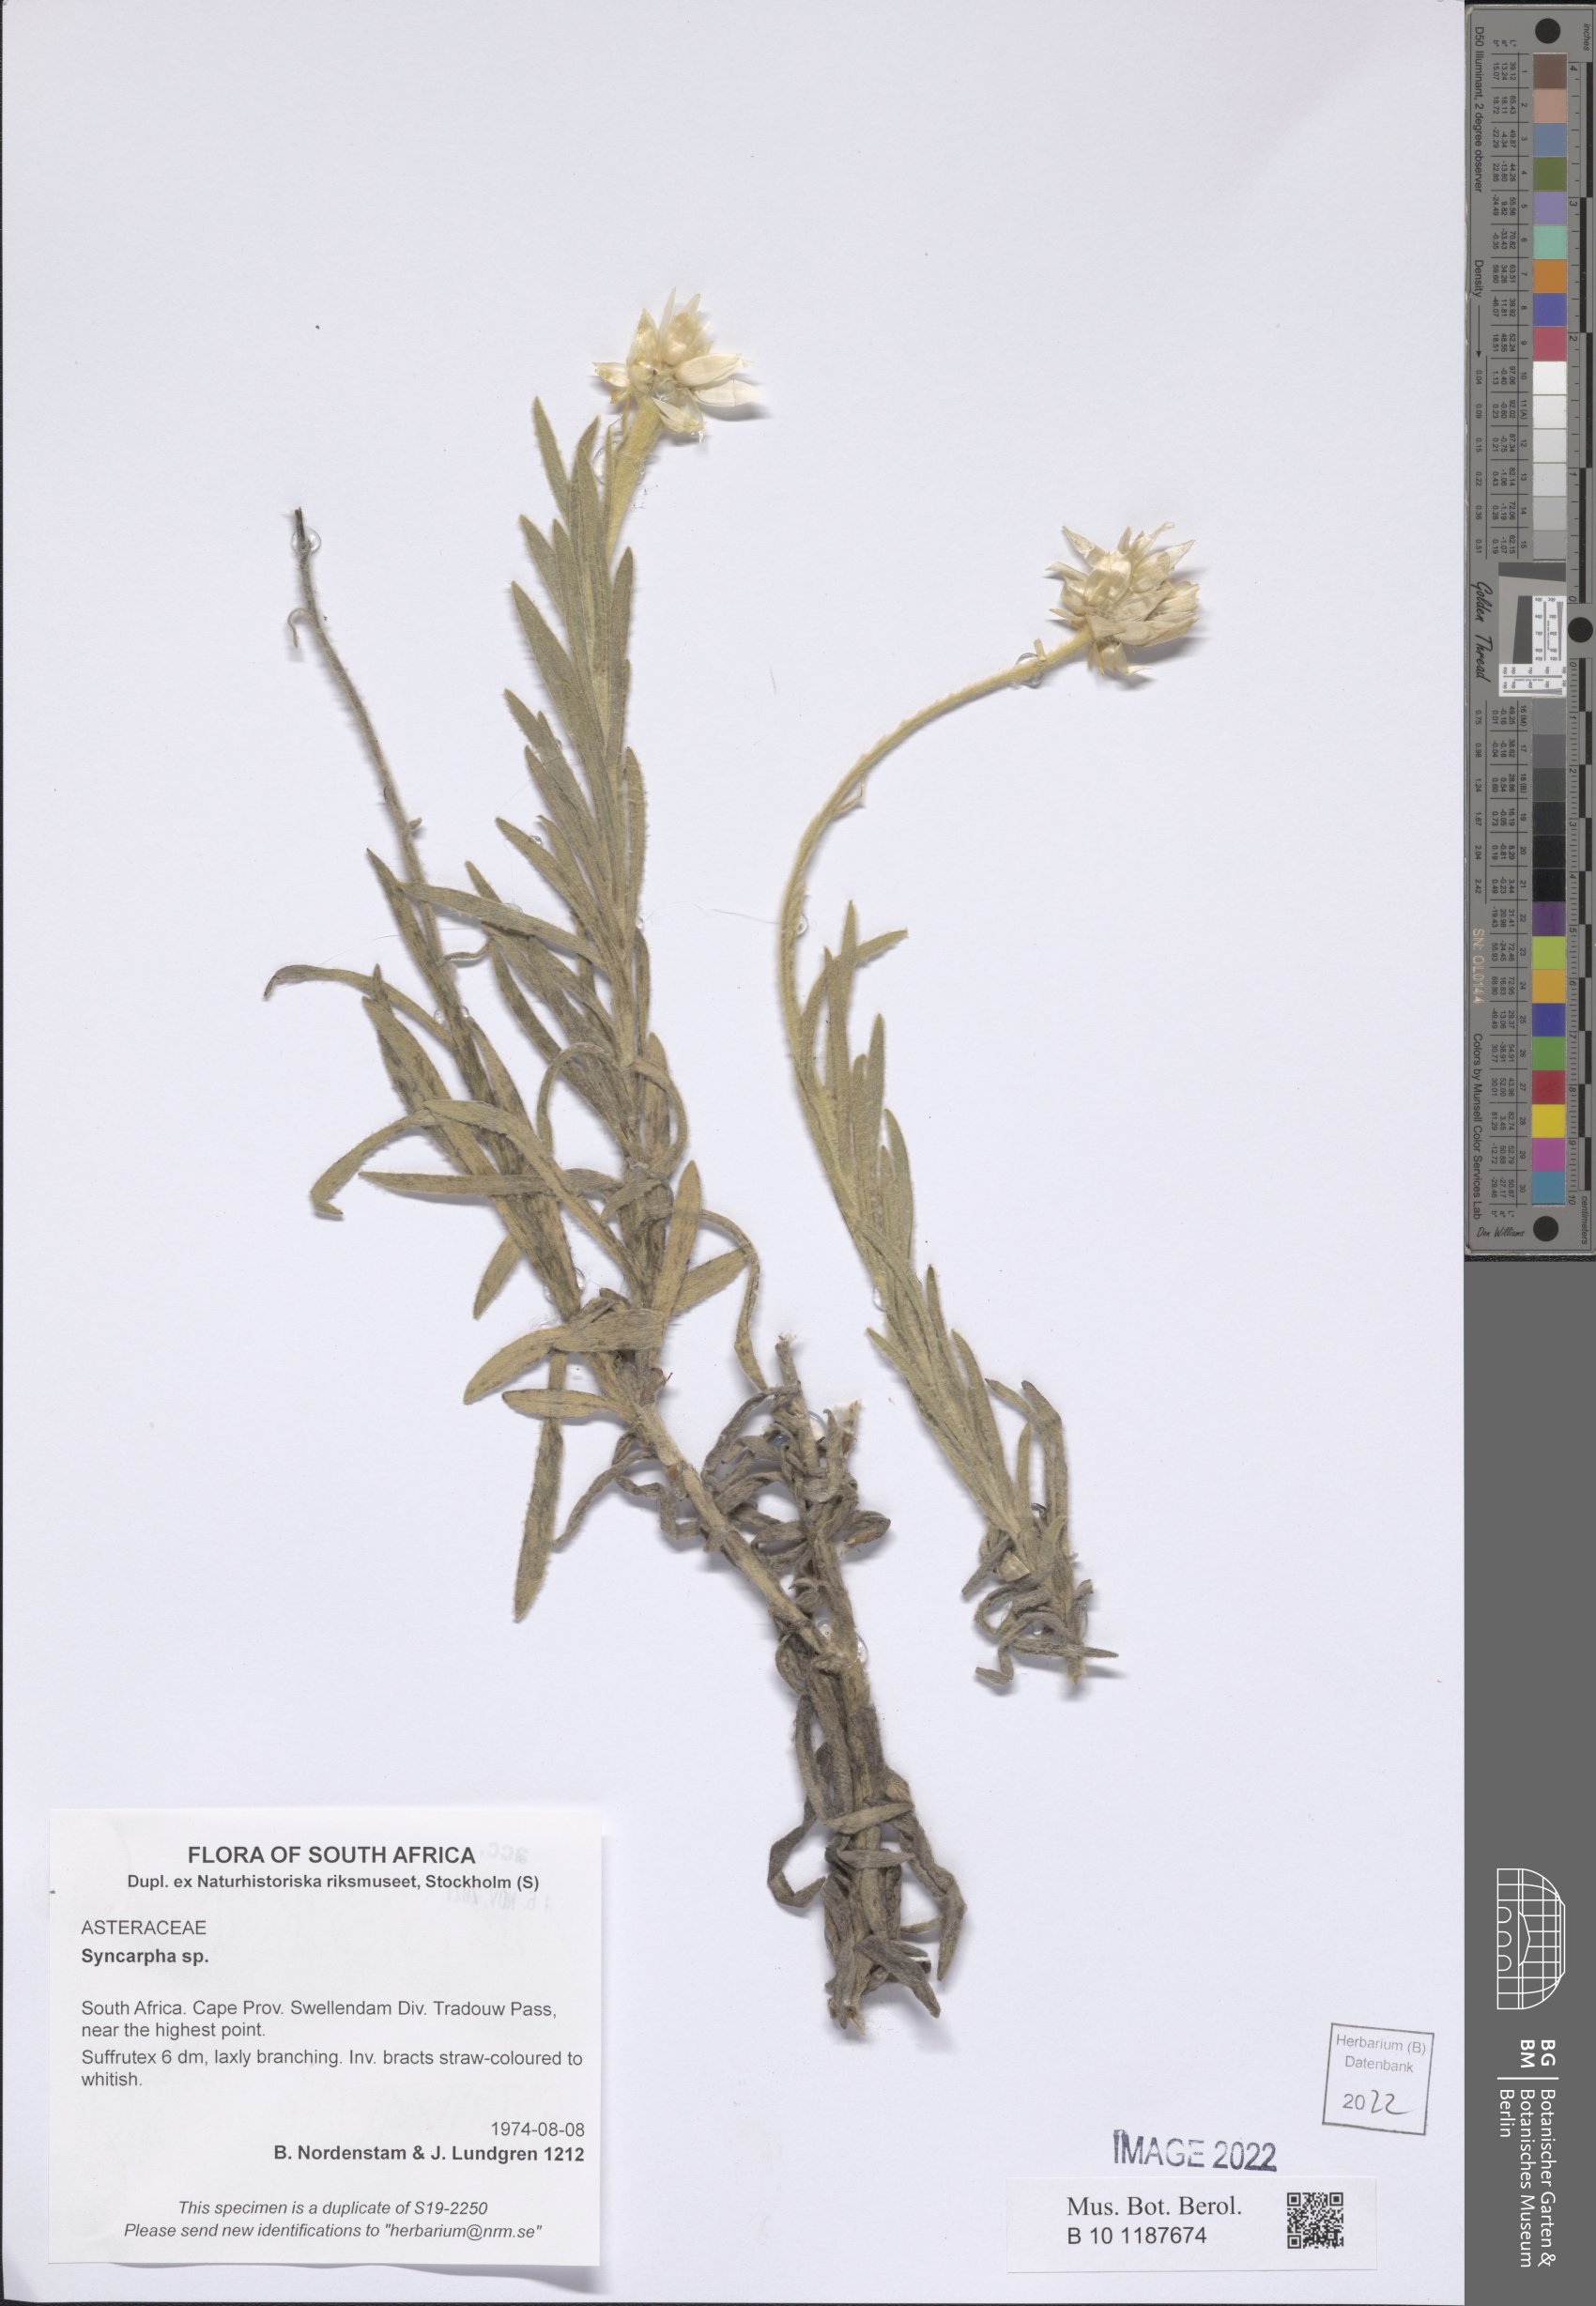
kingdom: Plantae
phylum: Tracheophyta
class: Magnoliopsida
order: Asterales
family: Asteraceae
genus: Syncarpha
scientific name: Syncarpha
